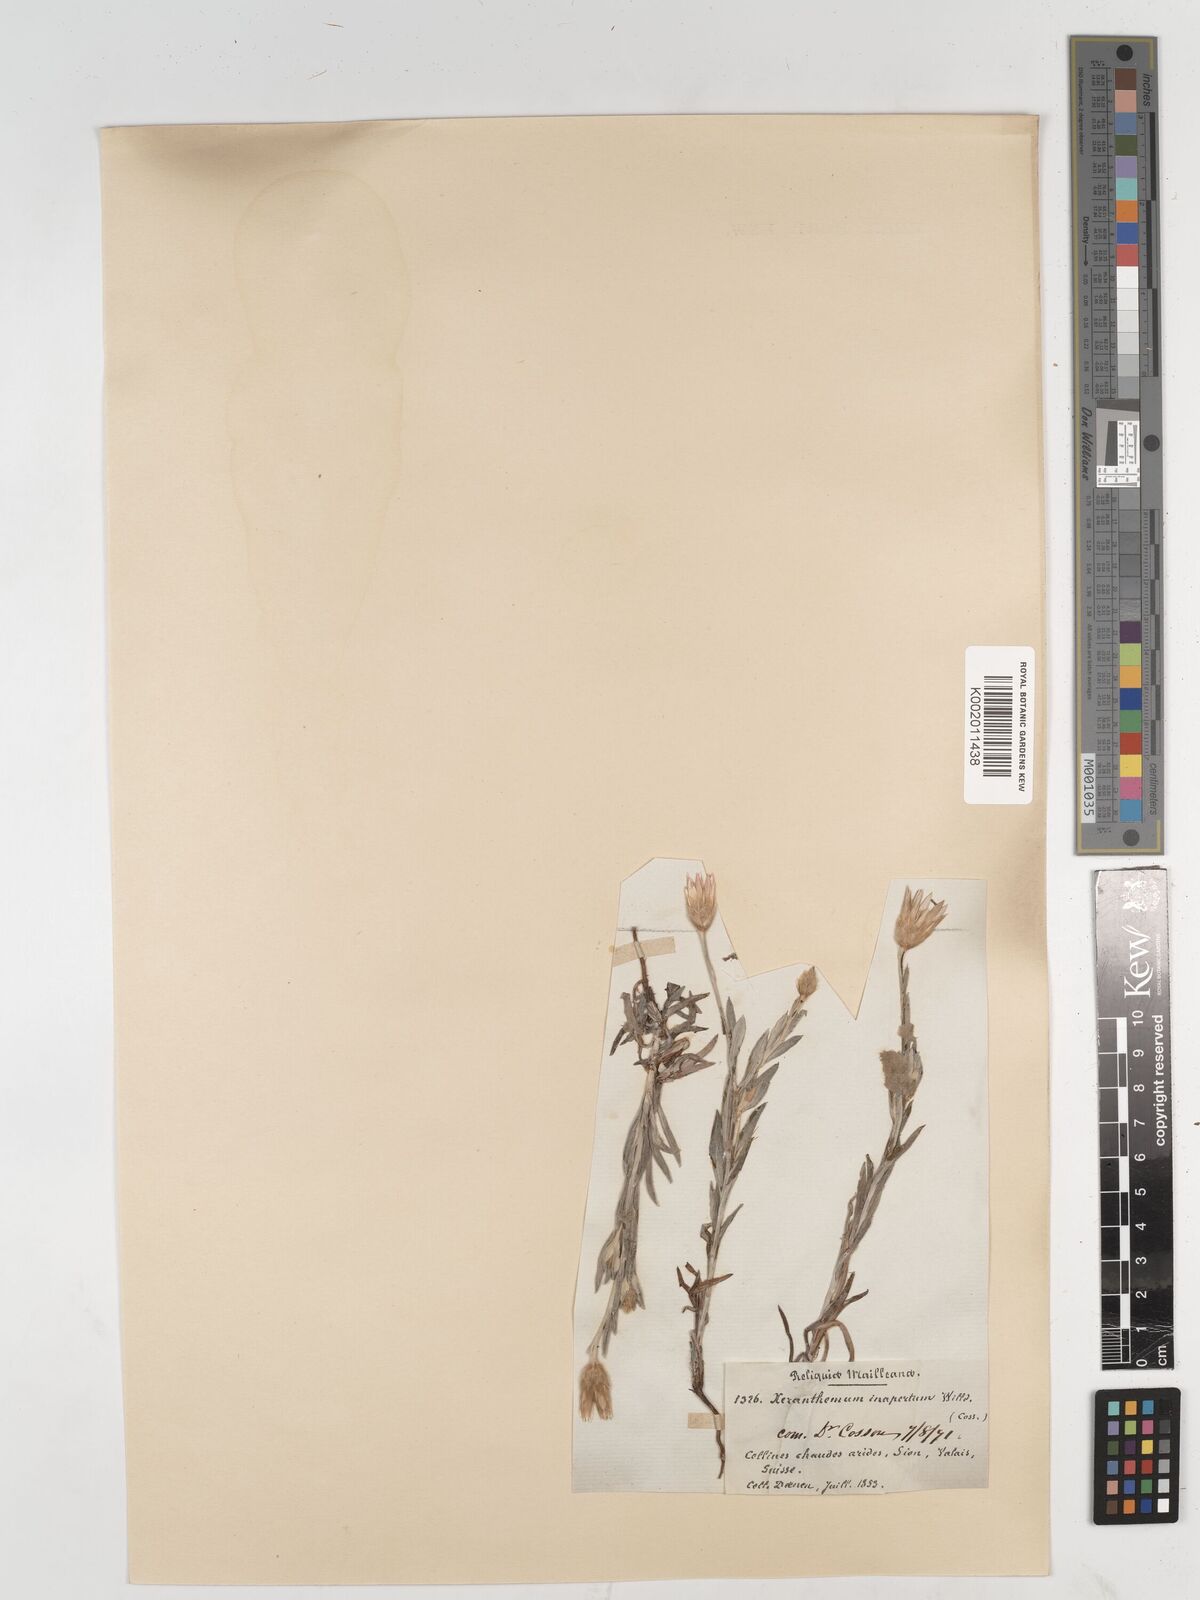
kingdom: Plantae
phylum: Tracheophyta
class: Magnoliopsida
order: Asterales
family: Asteraceae
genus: Xeranthemum
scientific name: Xeranthemum
